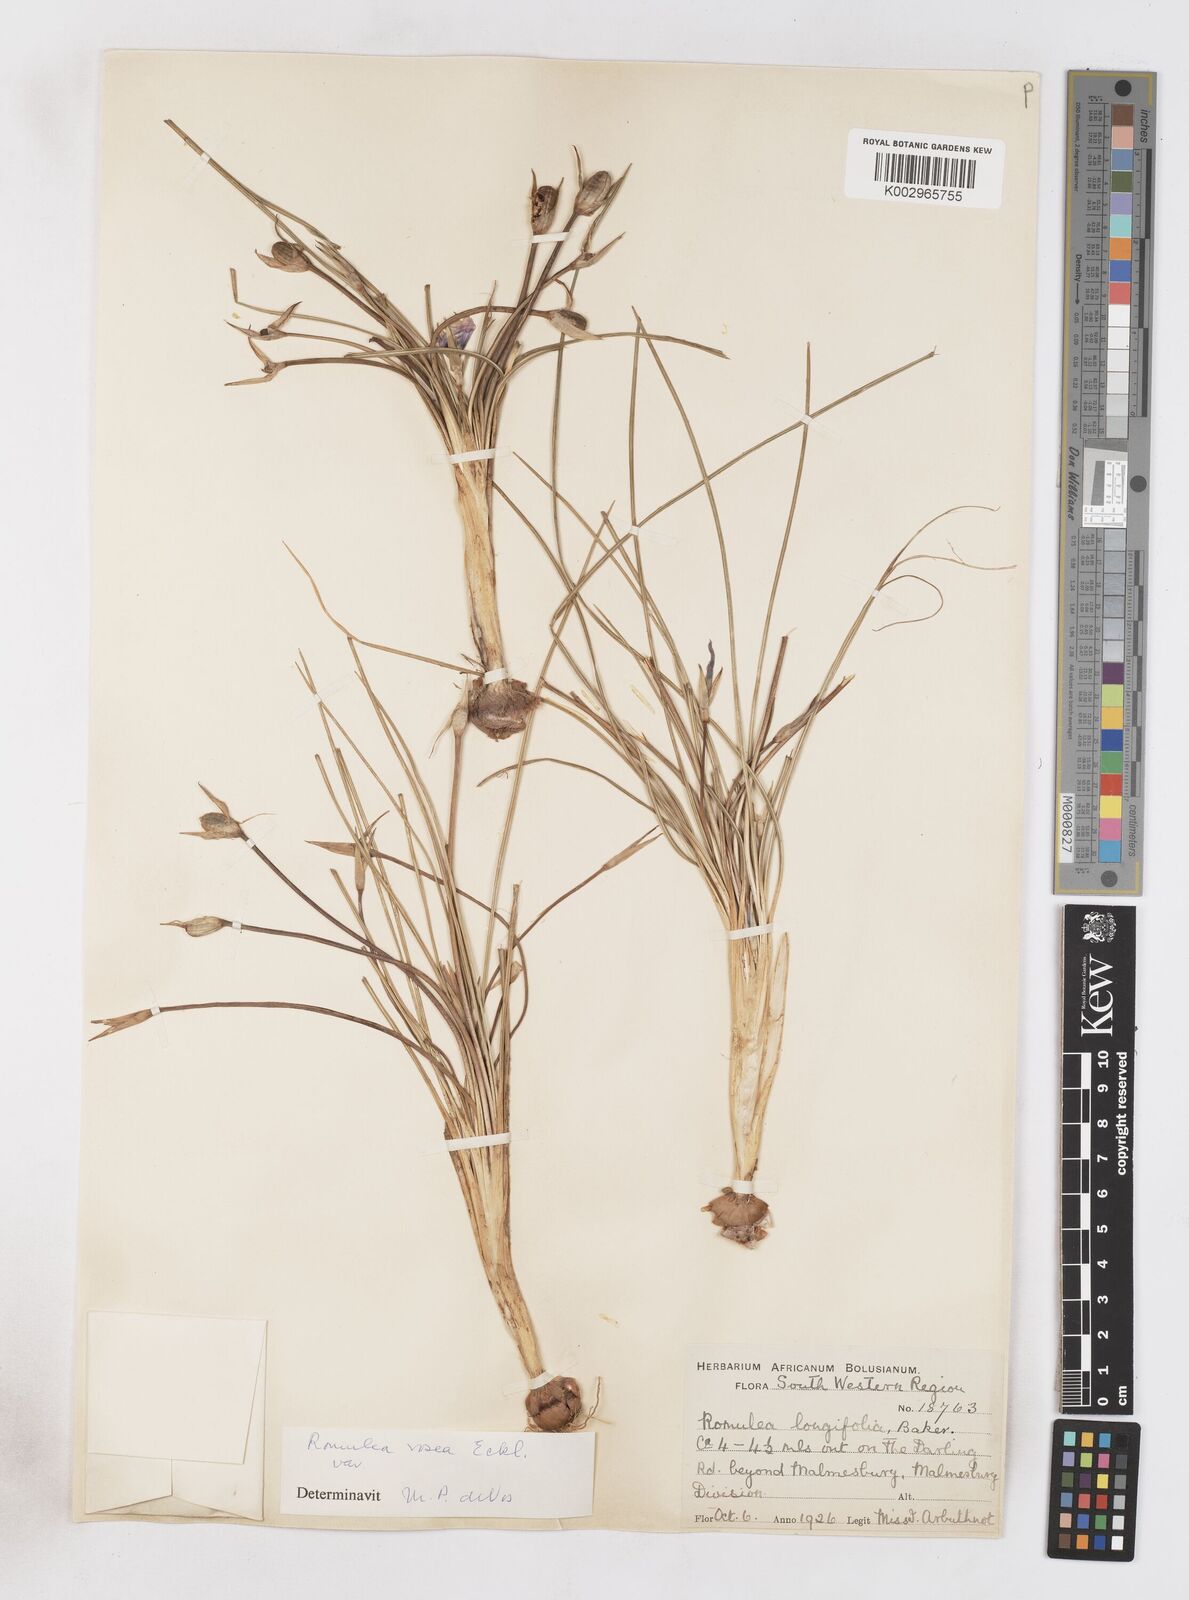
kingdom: Plantae
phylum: Tracheophyta
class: Liliopsida
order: Asparagales
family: Iridaceae
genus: Romulea
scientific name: Romulea rosea
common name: Oniongrass
